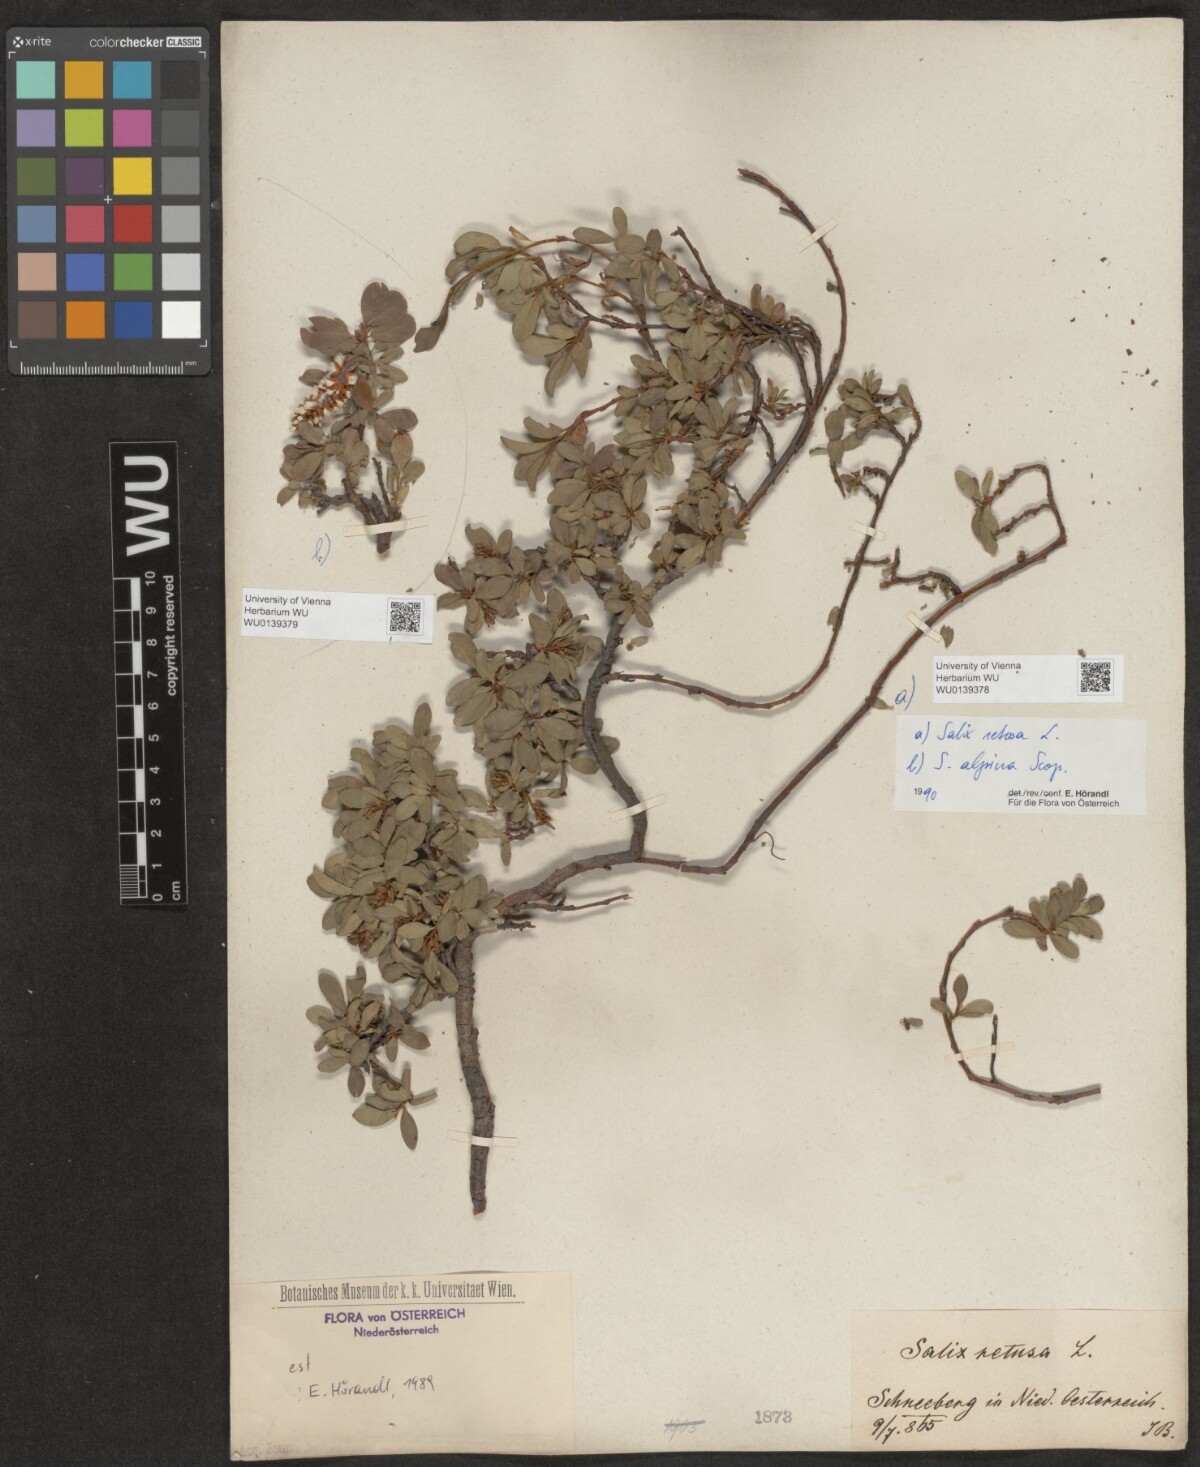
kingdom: Plantae
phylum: Tracheophyta
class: Magnoliopsida
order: Malpighiales
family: Salicaceae
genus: Salix
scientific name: Salix retusa
